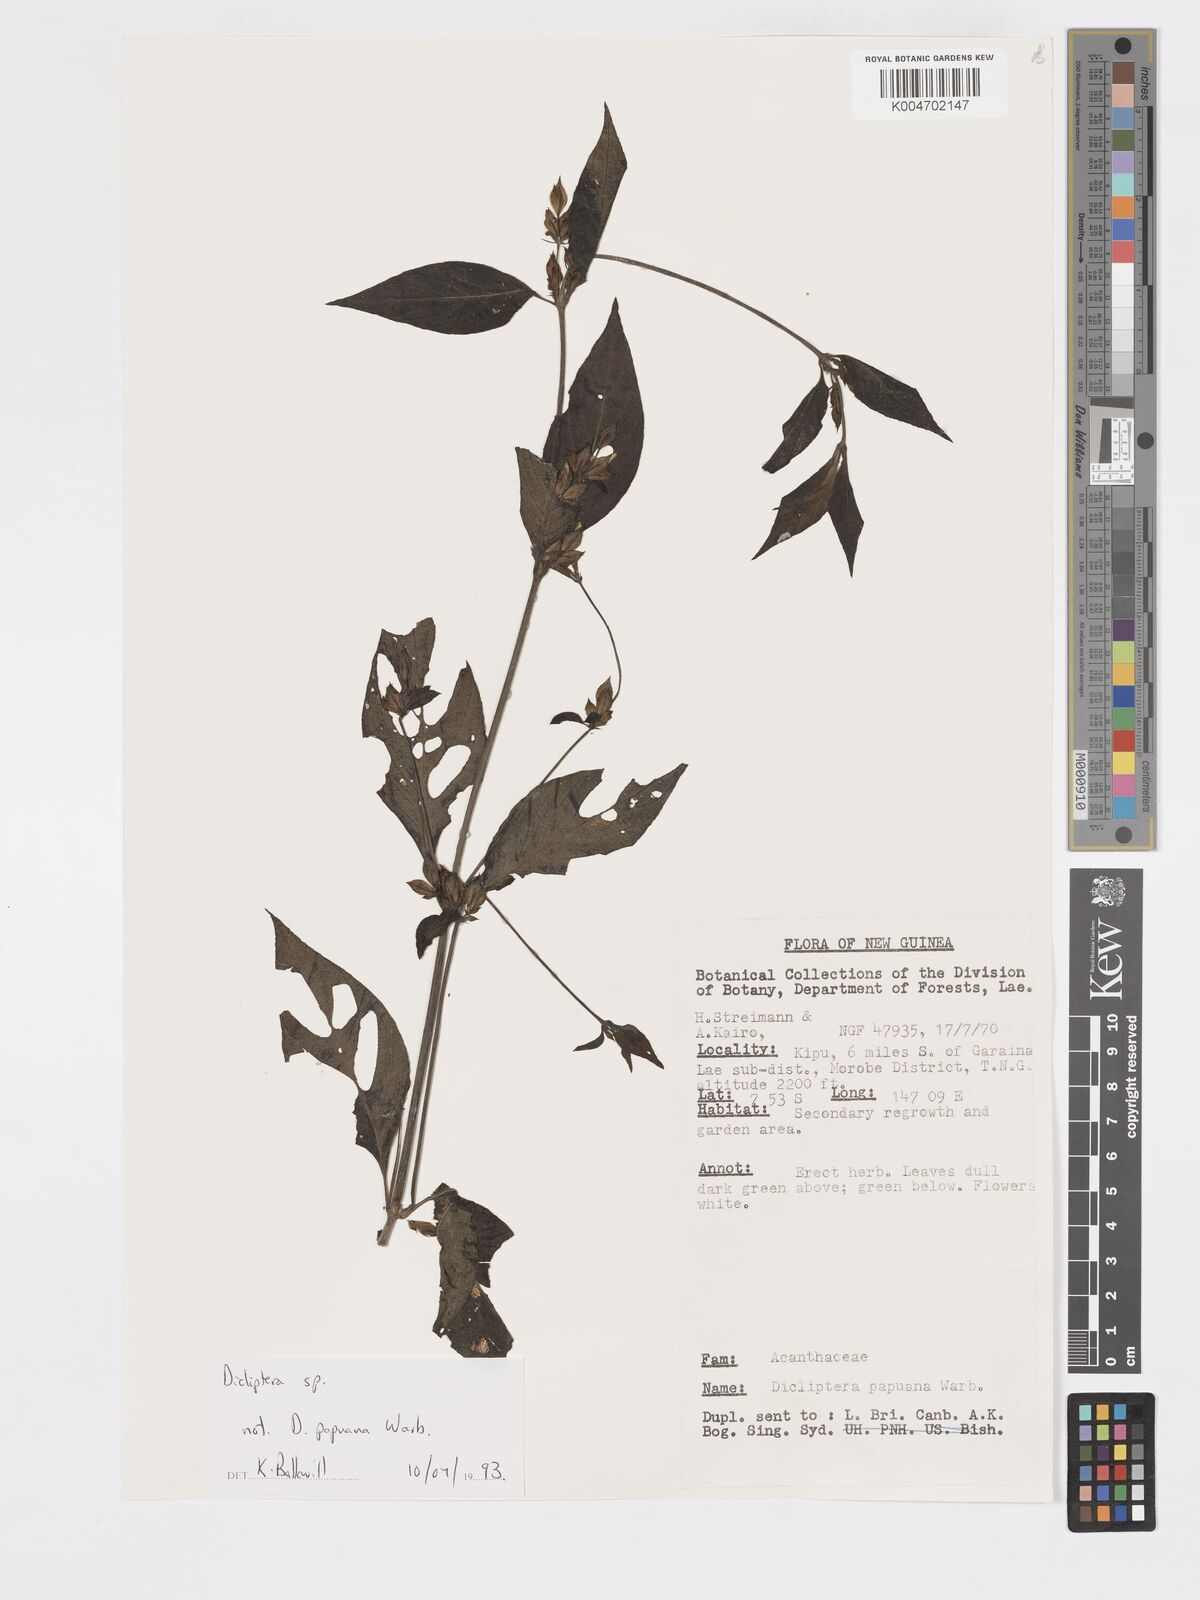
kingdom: Plantae
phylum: Tracheophyta
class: Magnoliopsida
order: Lamiales
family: Acanthaceae
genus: Dicliptera
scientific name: Dicliptera
